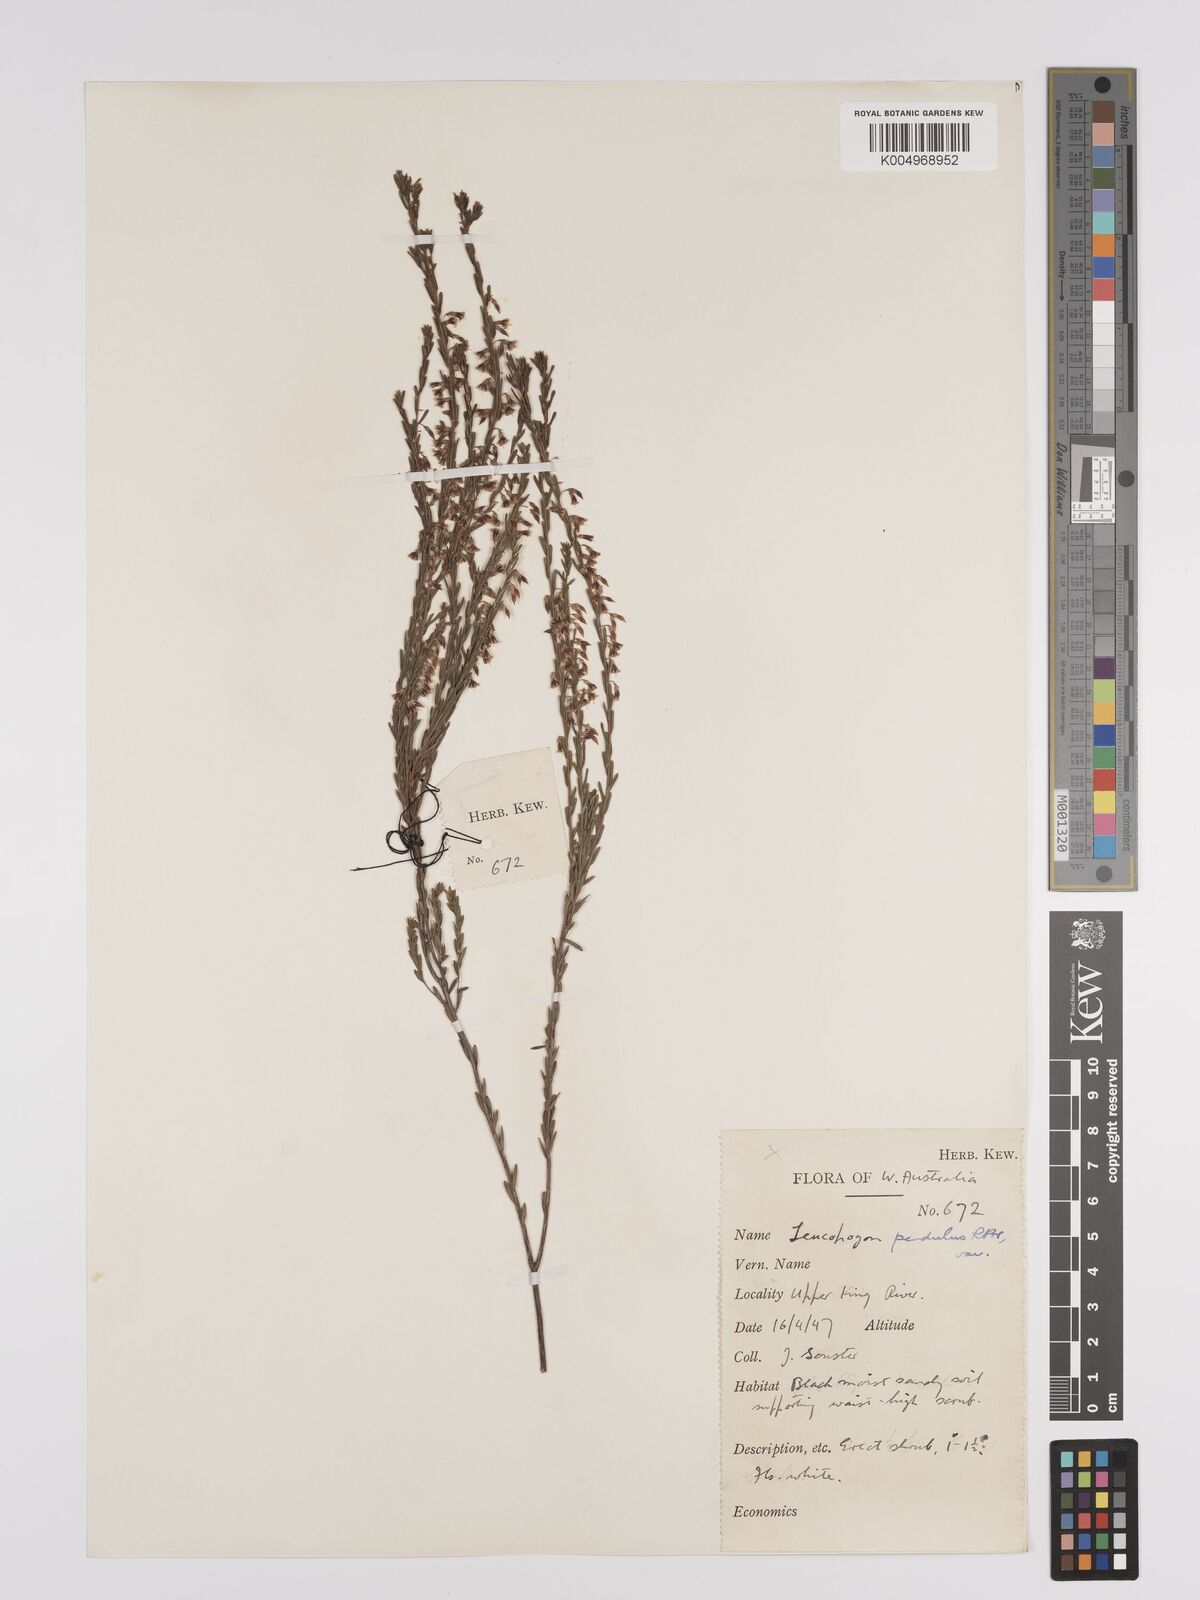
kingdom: Plantae
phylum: Tracheophyta
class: Magnoliopsida
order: Ericales
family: Ericaceae
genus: Styphelia
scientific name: Styphelia pendula
